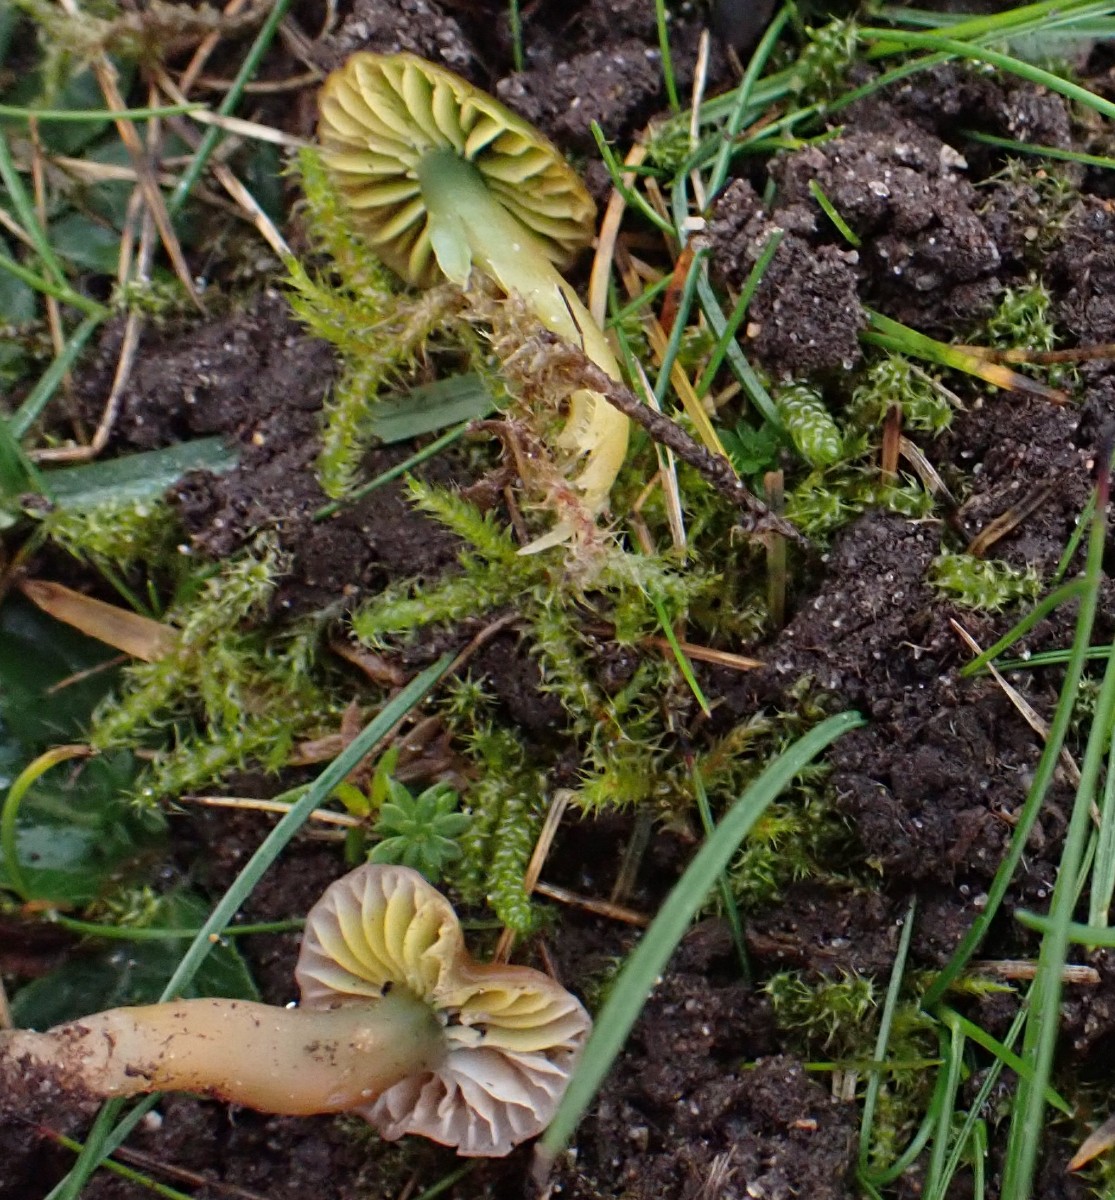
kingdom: Fungi
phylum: Basidiomycota
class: Agaricomycetes
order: Agaricales
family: Hygrophoraceae
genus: Gliophorus
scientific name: Gliophorus psittacinus
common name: papegøje-vokshat
